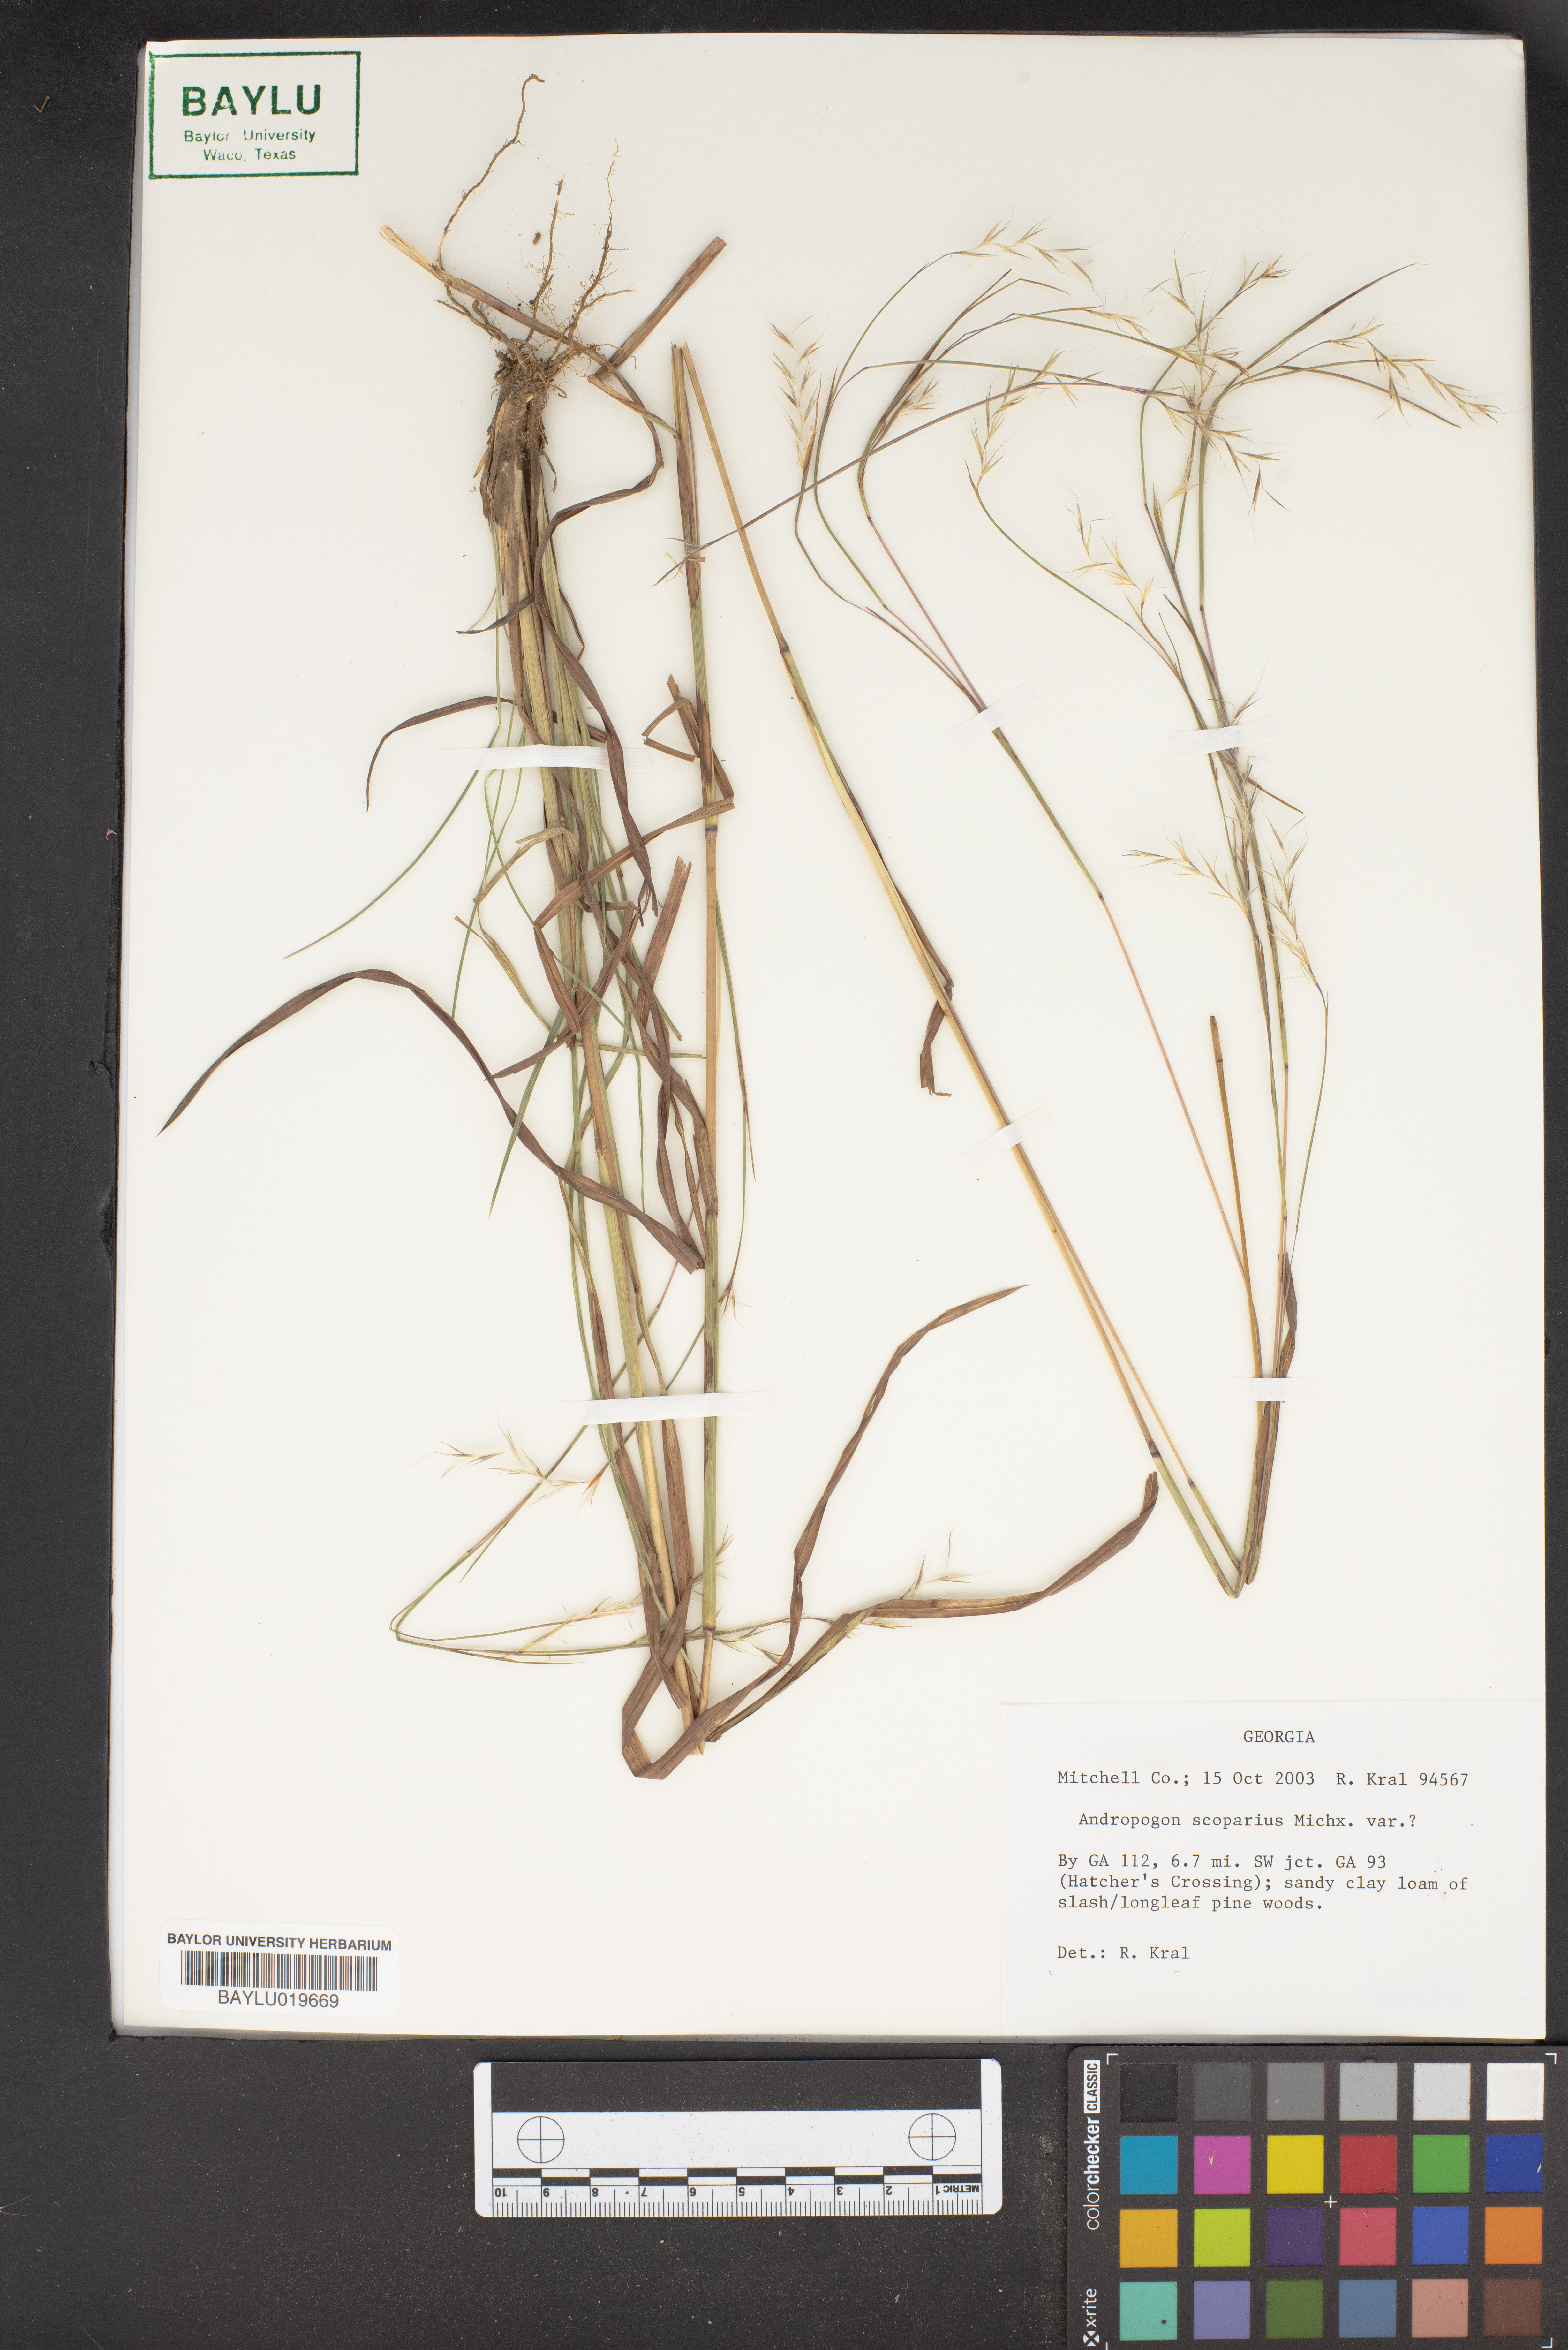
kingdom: Plantae
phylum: Tracheophyta
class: Liliopsida
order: Poales
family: Poaceae
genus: Schizachyrium
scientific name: Schizachyrium scoparium
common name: Little bluestem
